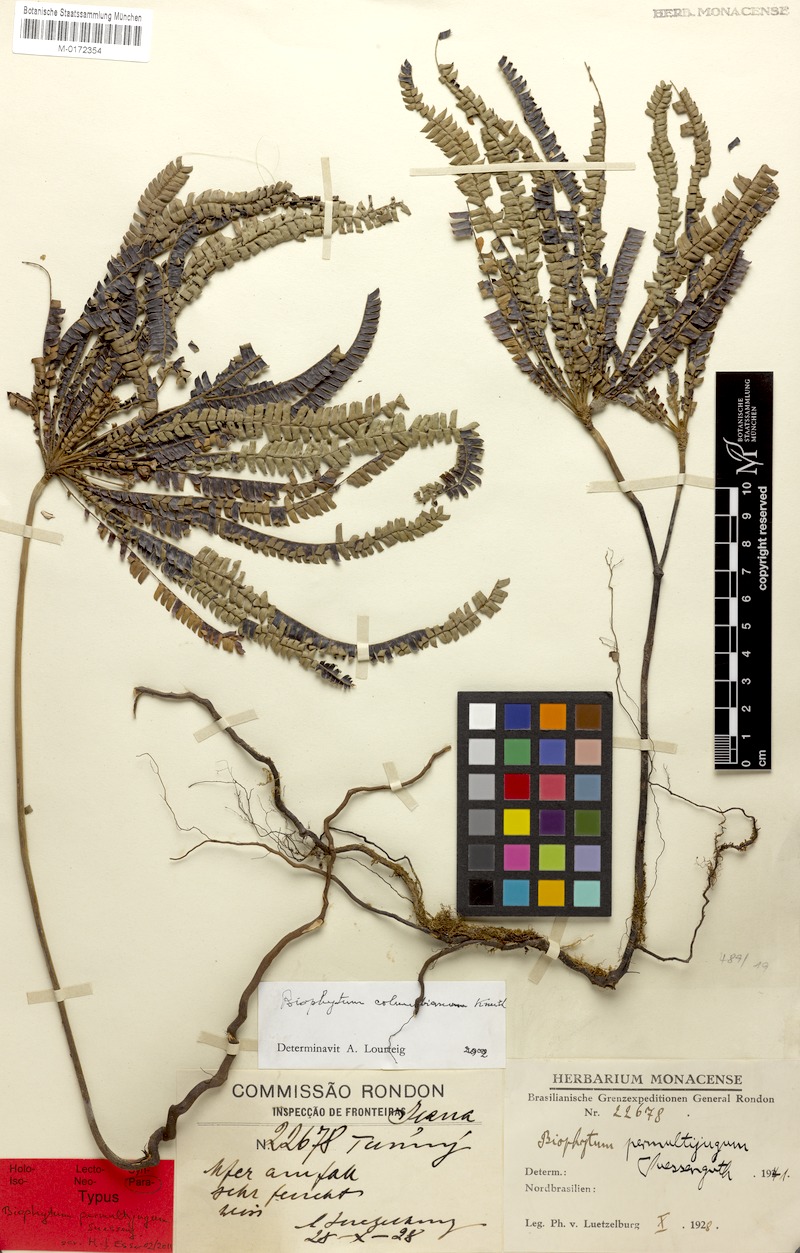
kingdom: Plantae
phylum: Tracheophyta
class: Magnoliopsida
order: Oxalidales
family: Oxalidaceae
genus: Biophytum
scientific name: Biophytum calophyllum
